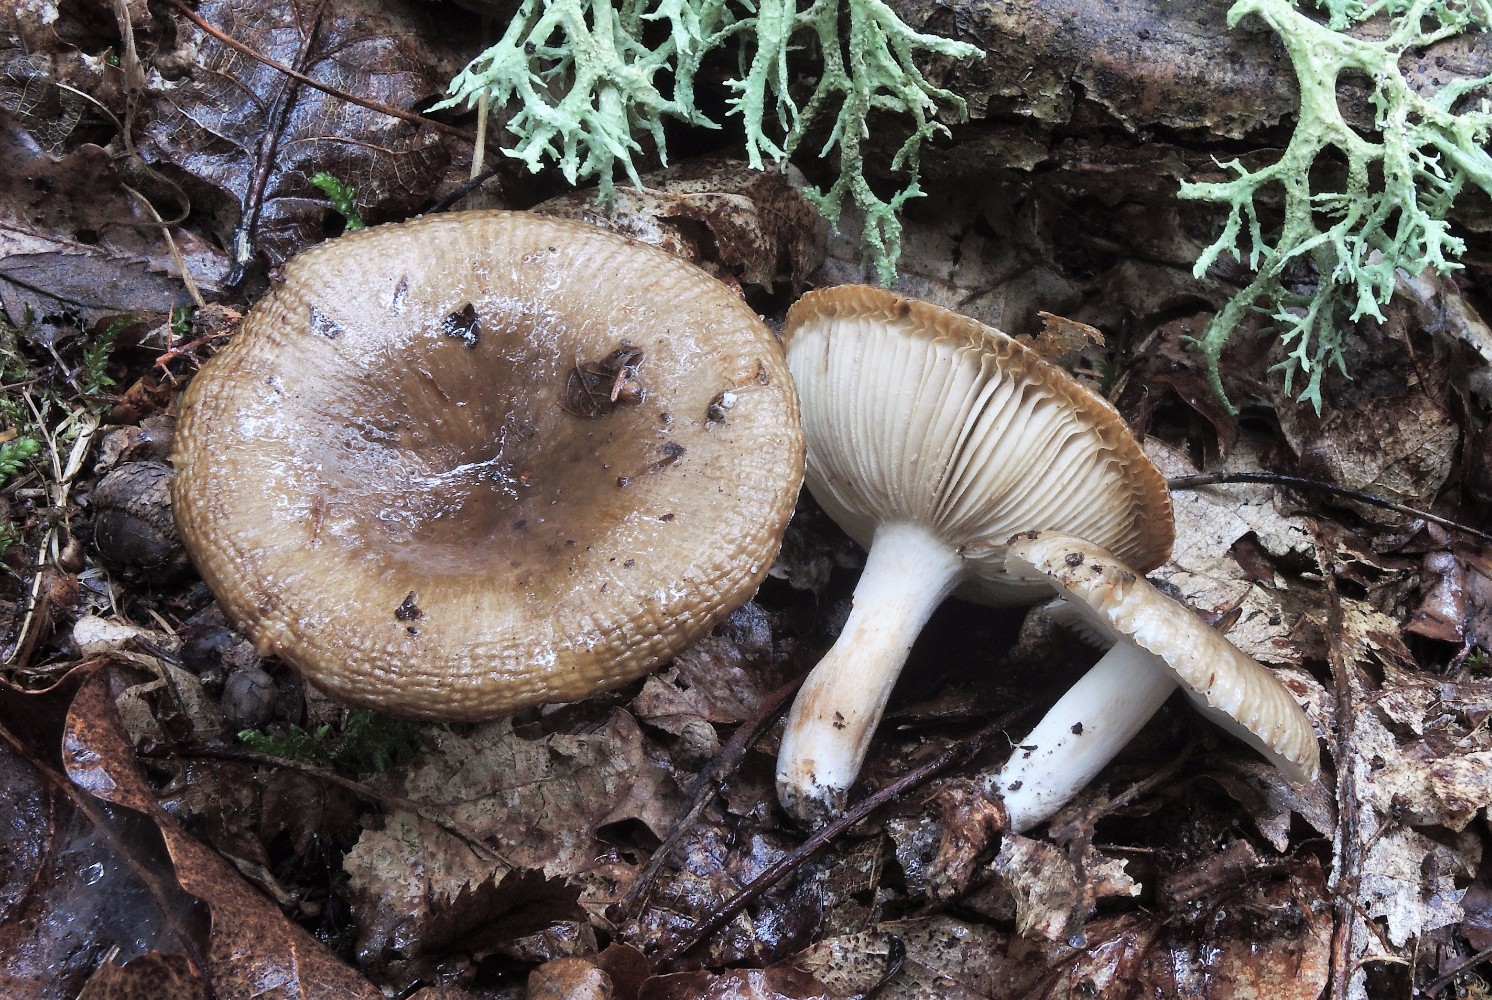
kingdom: Fungi
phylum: Basidiomycota
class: Agaricomycetes
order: Russulales
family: Russulaceae
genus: Russula
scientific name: Russula amoenolens
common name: skarp kam-skørhat
